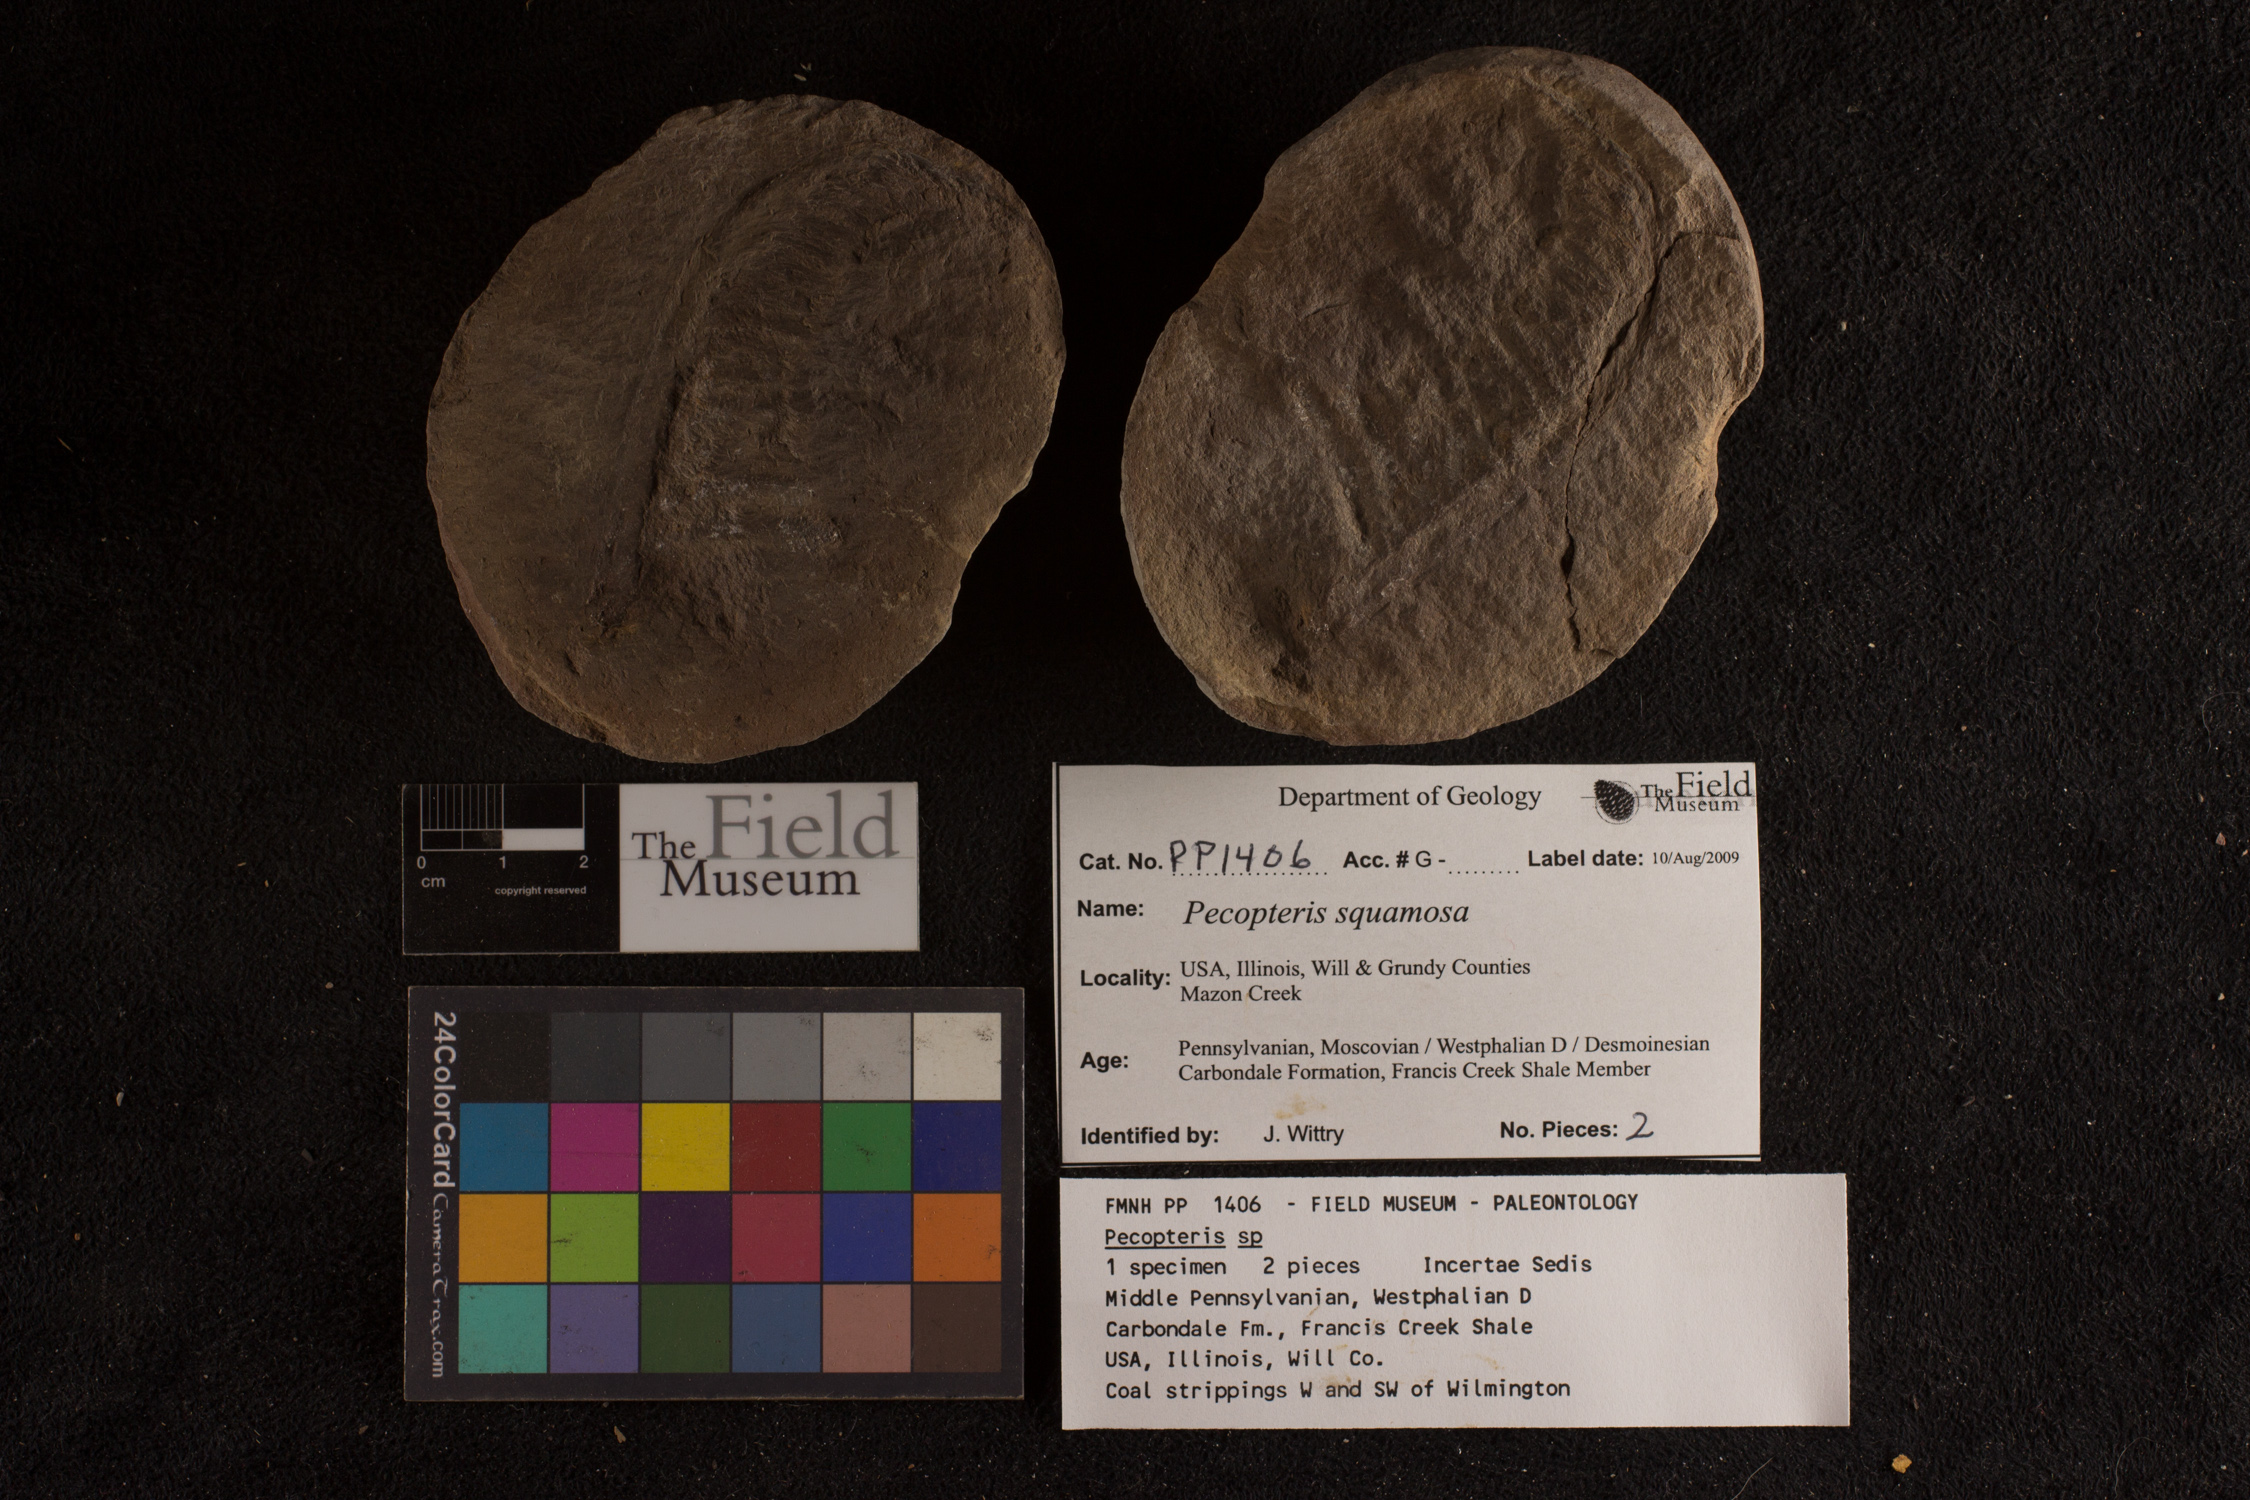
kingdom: Plantae
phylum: Tracheophyta
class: Polypodiopsida
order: Marattiales
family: Asterothecaceae
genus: Pecopteris
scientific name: Pecopteris
